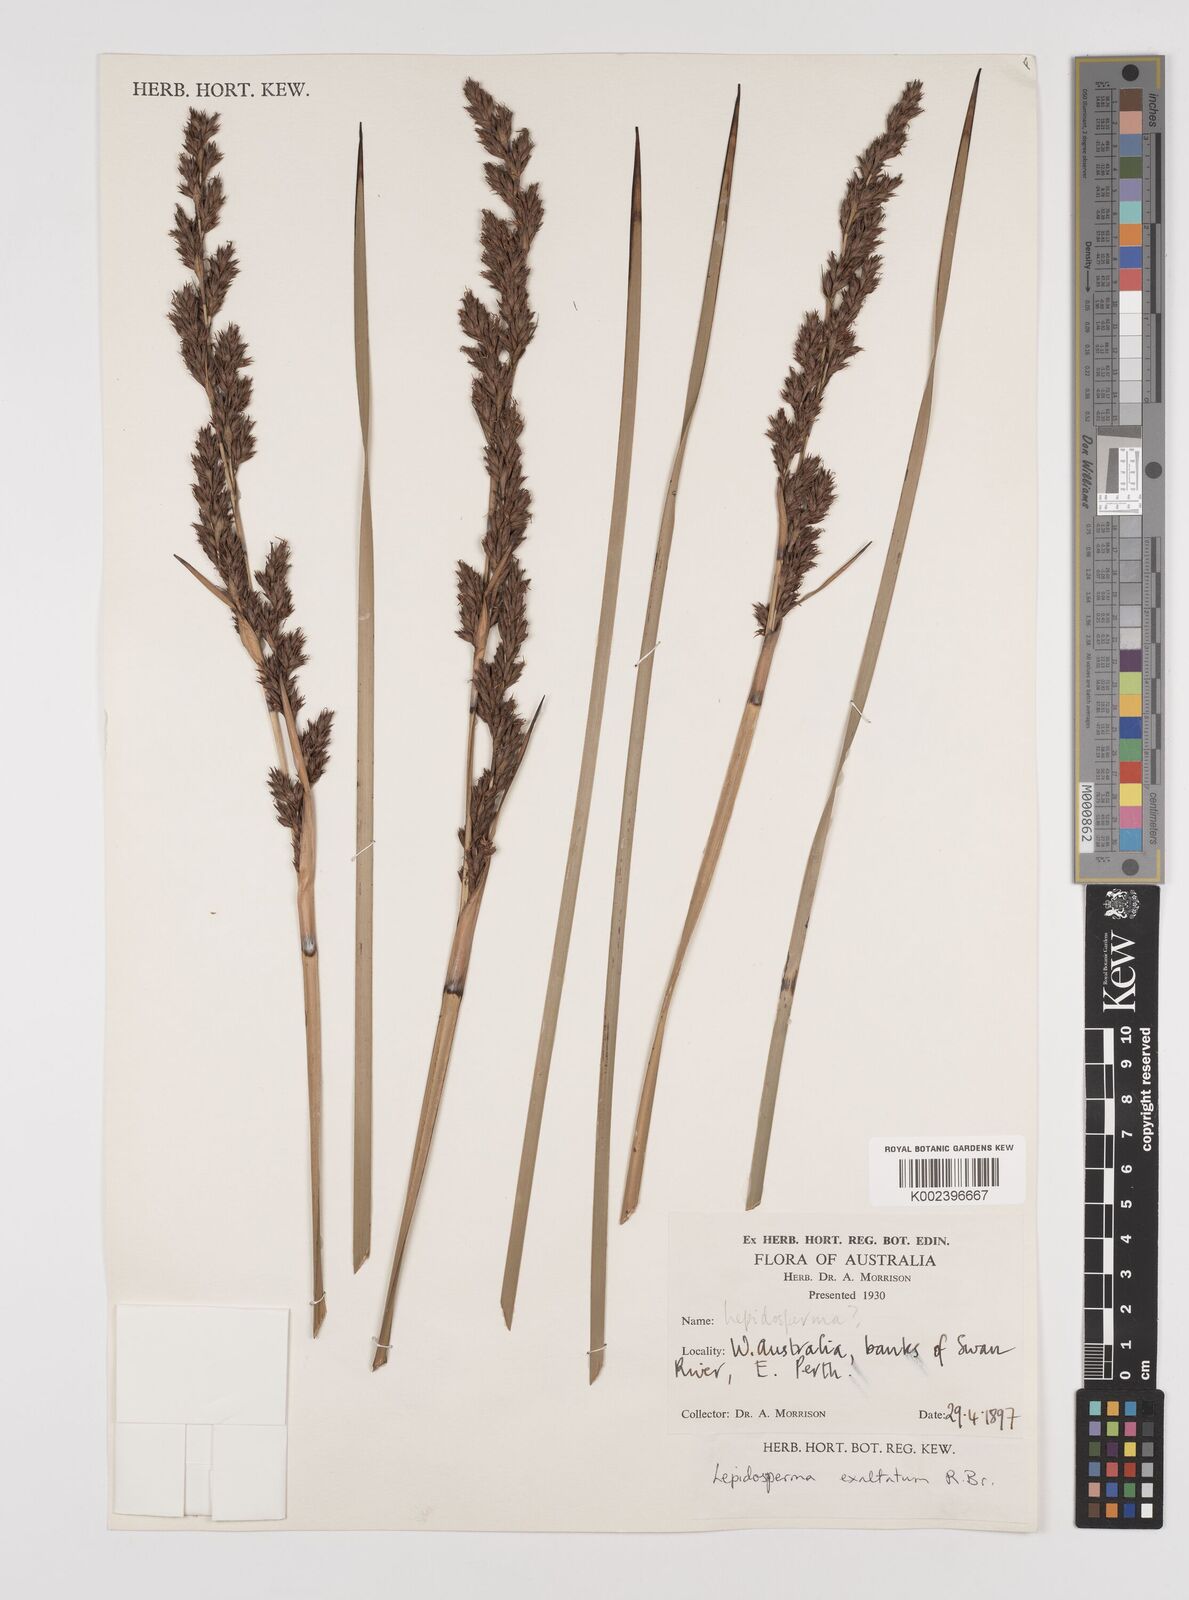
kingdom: Plantae
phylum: Tracheophyta
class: Liliopsida
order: Poales
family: Cyperaceae
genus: Lepidosperma
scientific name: Lepidosperma longitudinale
